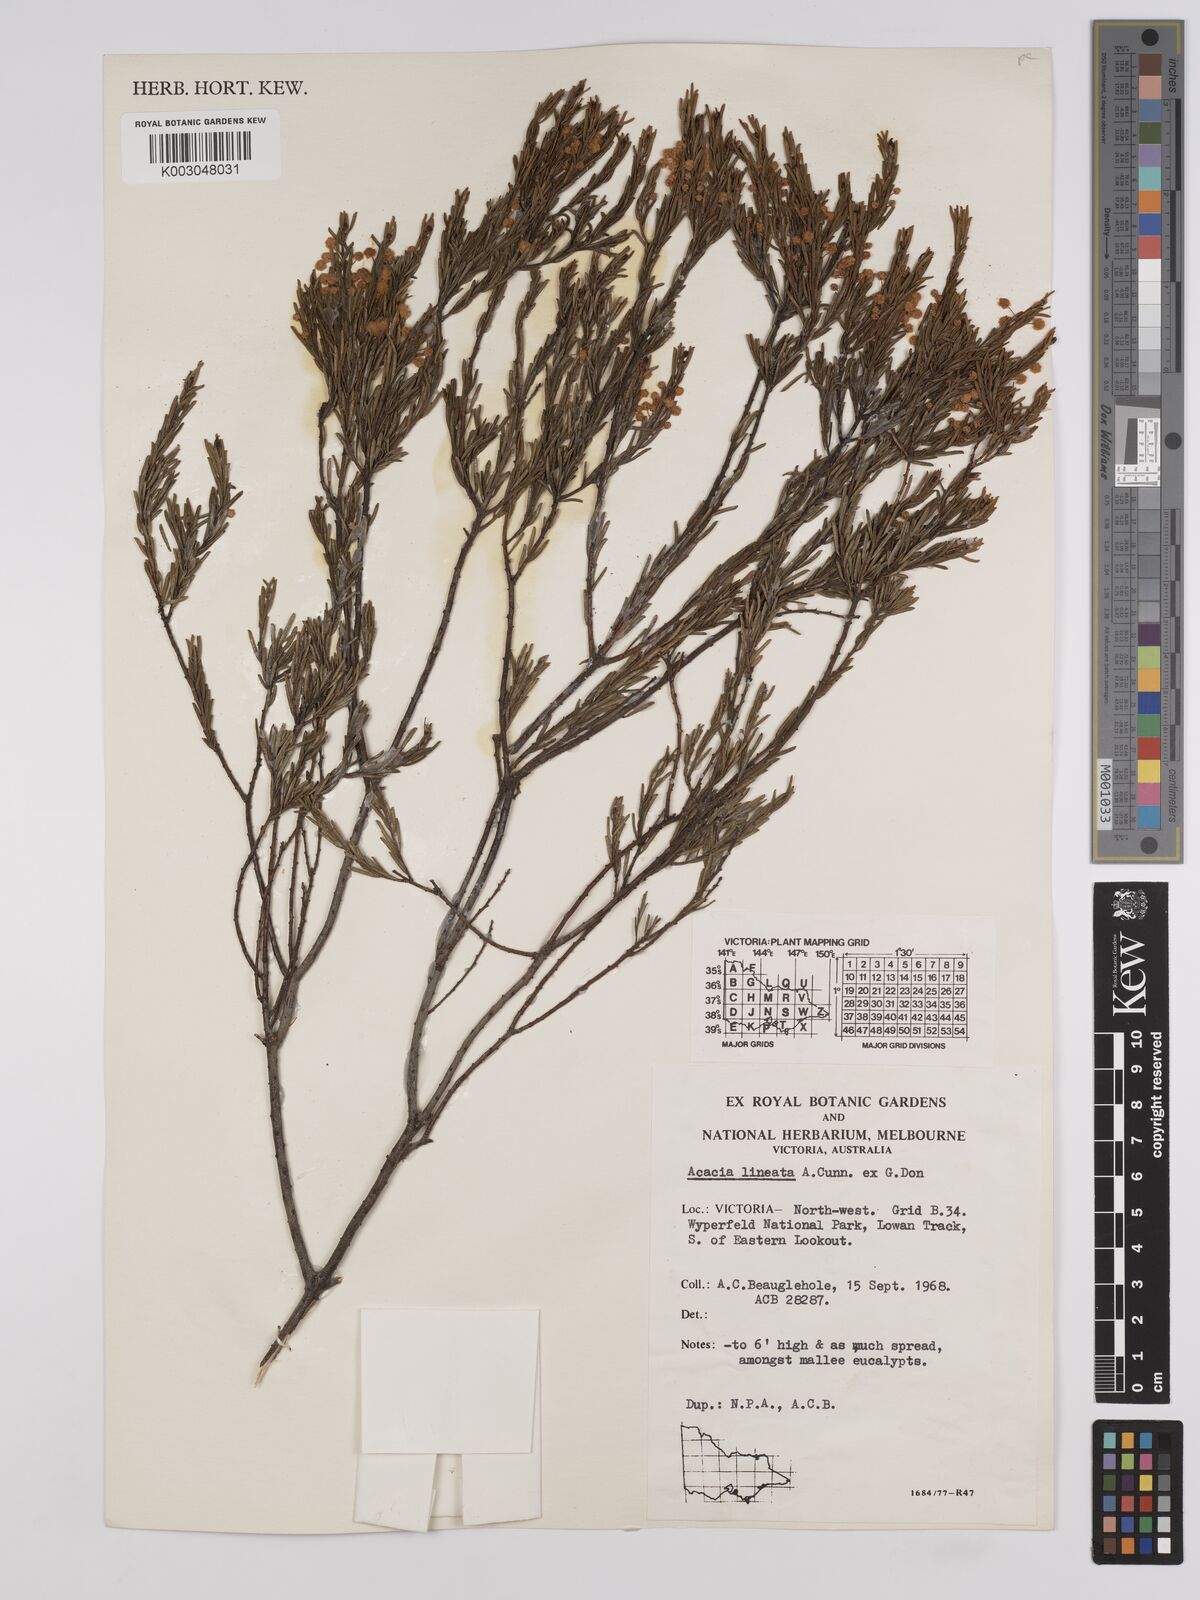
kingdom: Plantae
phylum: Tracheophyta
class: Magnoliopsida
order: Fabales
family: Fabaceae
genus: Acacia
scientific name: Acacia lineata
